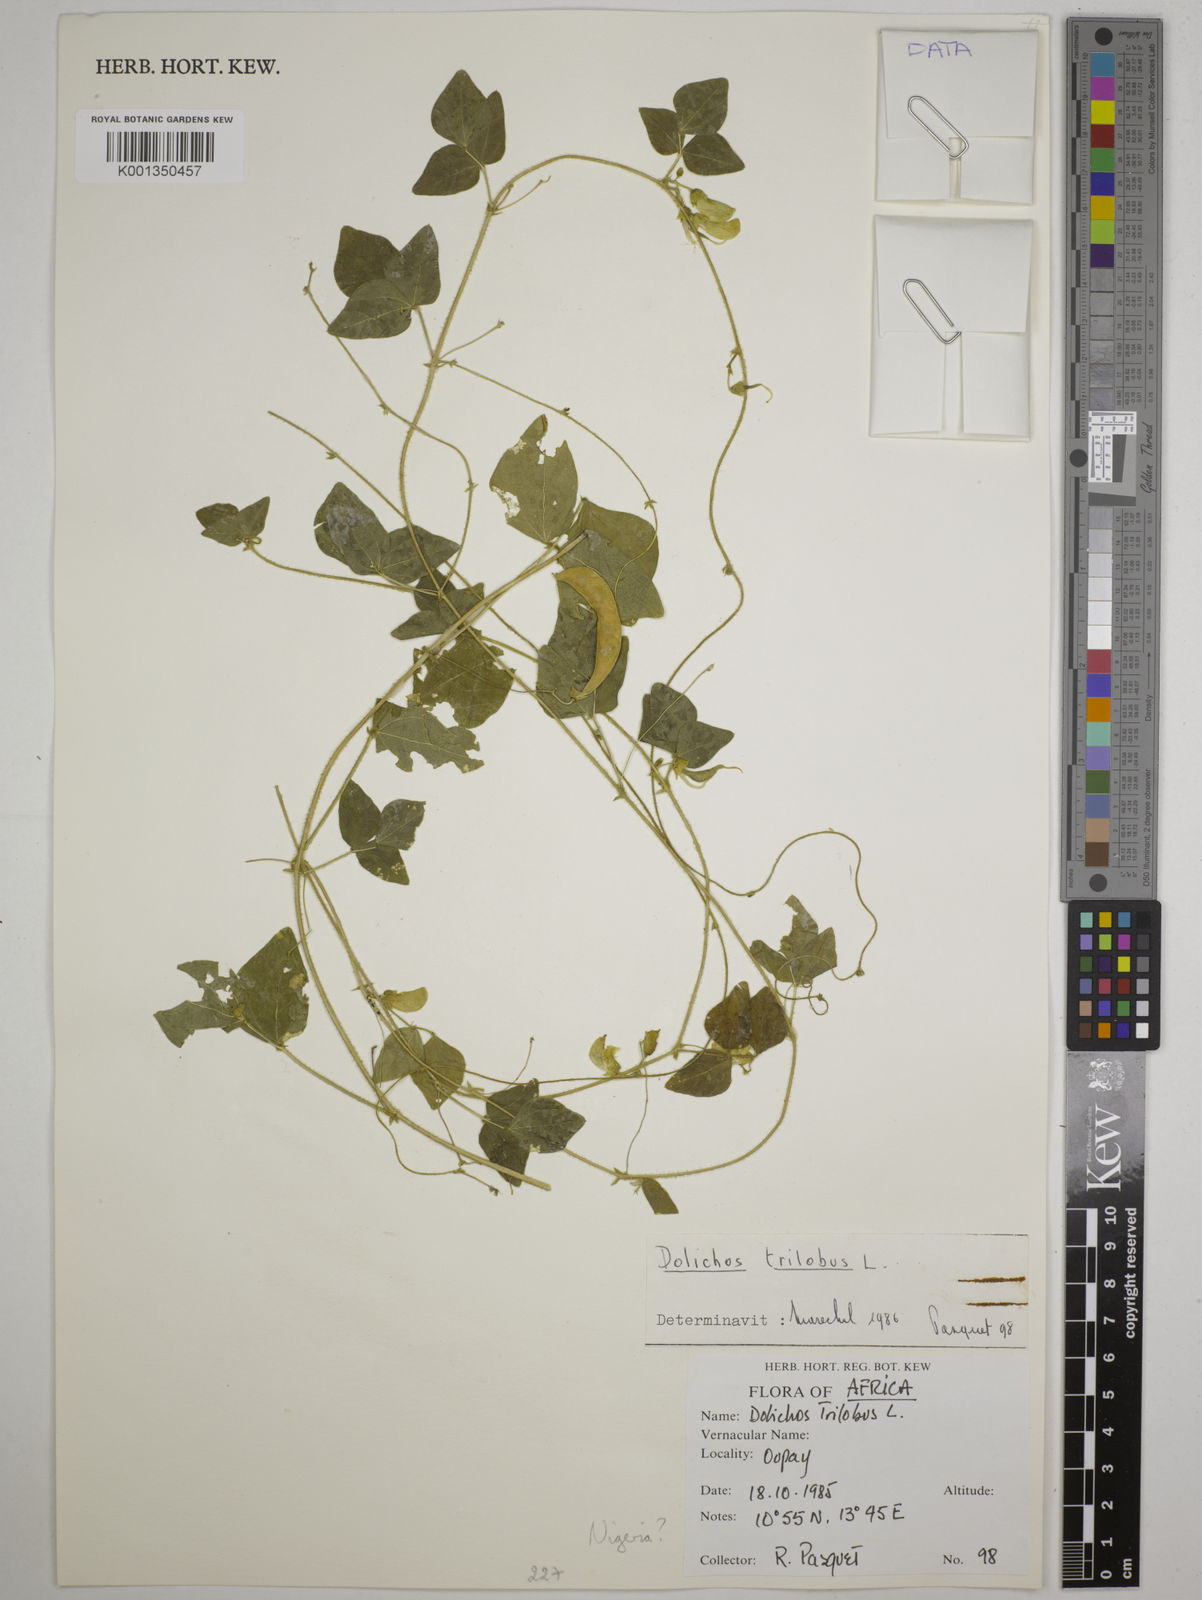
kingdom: Plantae
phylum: Tracheophyta
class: Magnoliopsida
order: Fabales
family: Fabaceae
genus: Dolichos
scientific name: Dolichos
